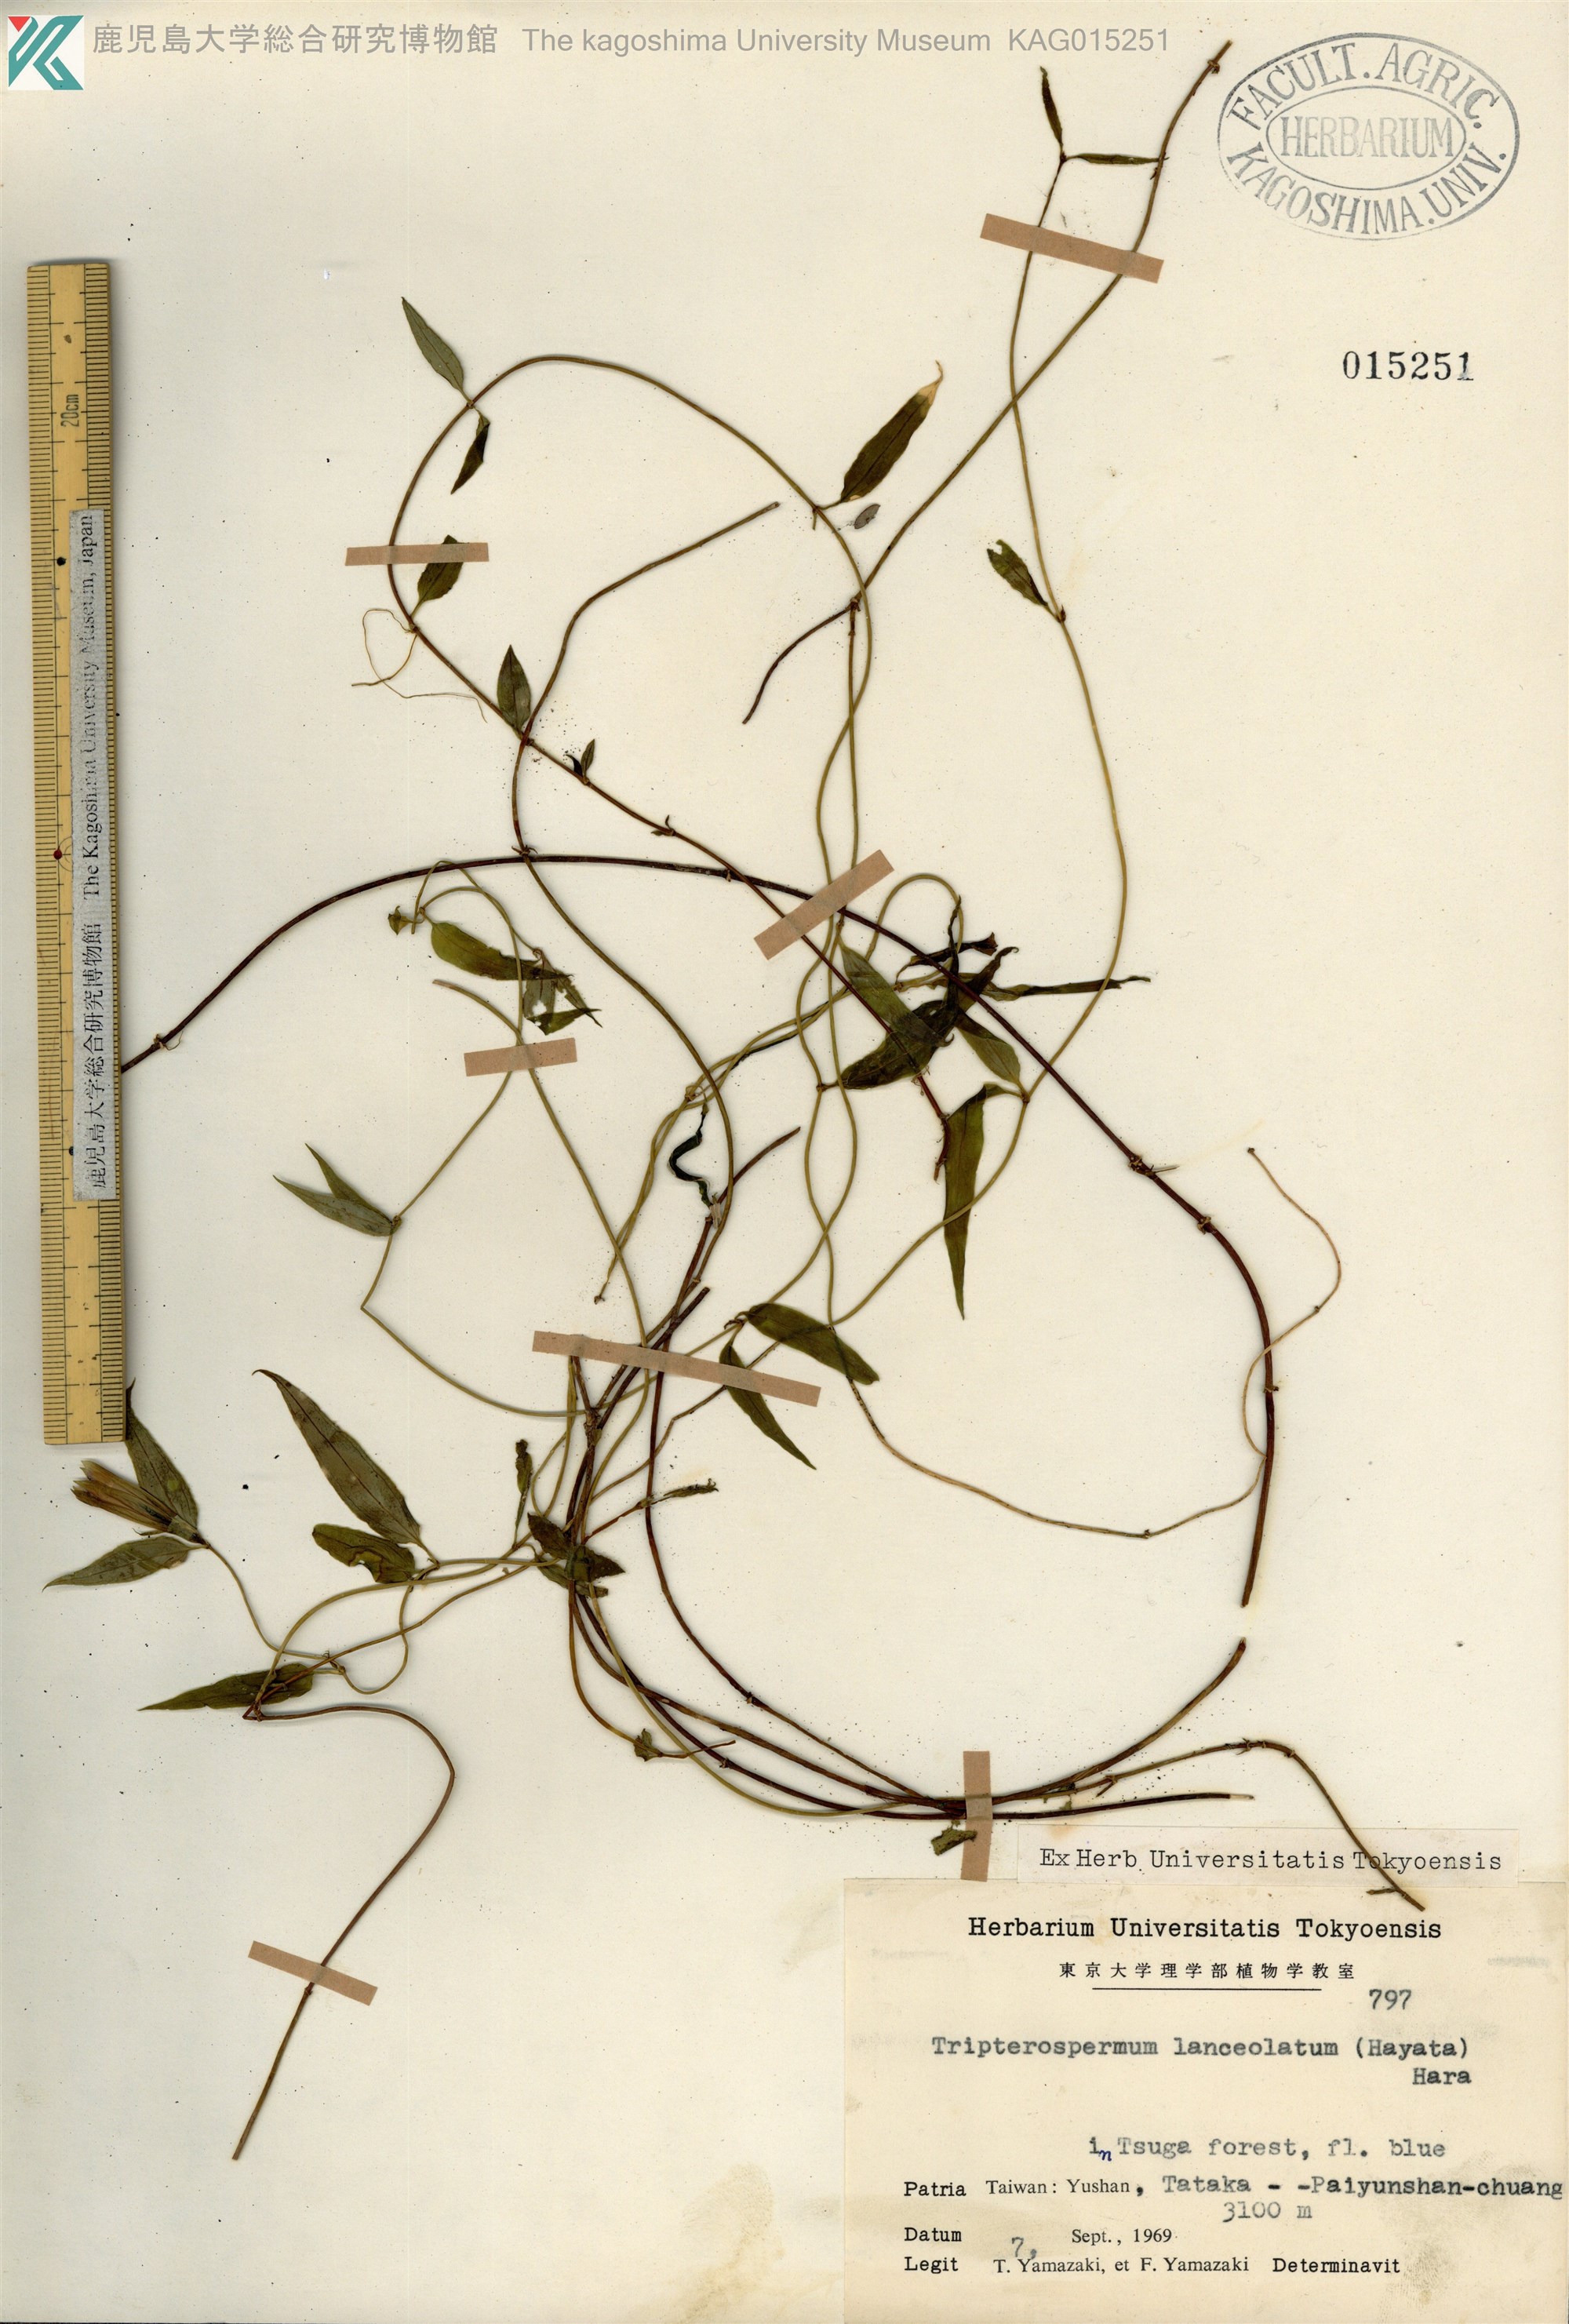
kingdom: Plantae
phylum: Tracheophyta
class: Magnoliopsida
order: Gentianales
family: Gentianaceae
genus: Tripterospermum
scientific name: Tripterospermum lanceolatum
